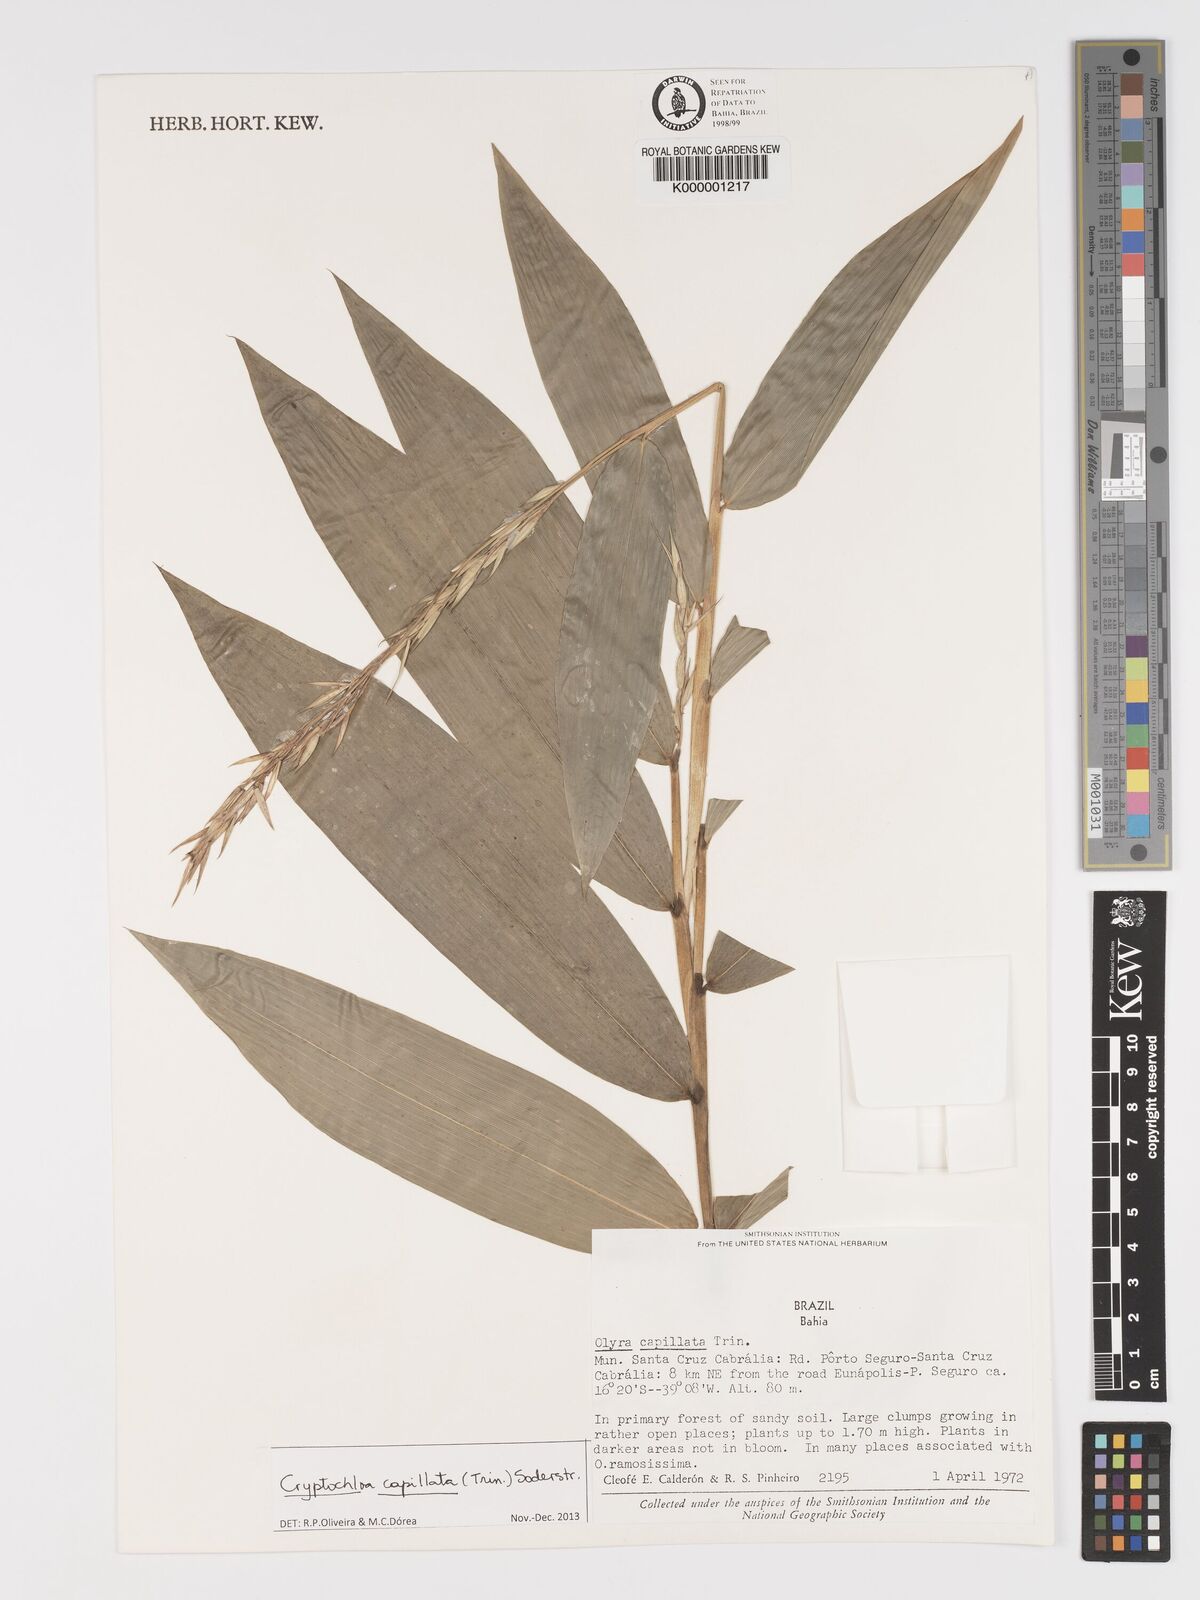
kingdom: Plantae
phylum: Tracheophyta
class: Liliopsida
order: Poales
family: Poaceae
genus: Cryptochloa
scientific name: Cryptochloa capillata
